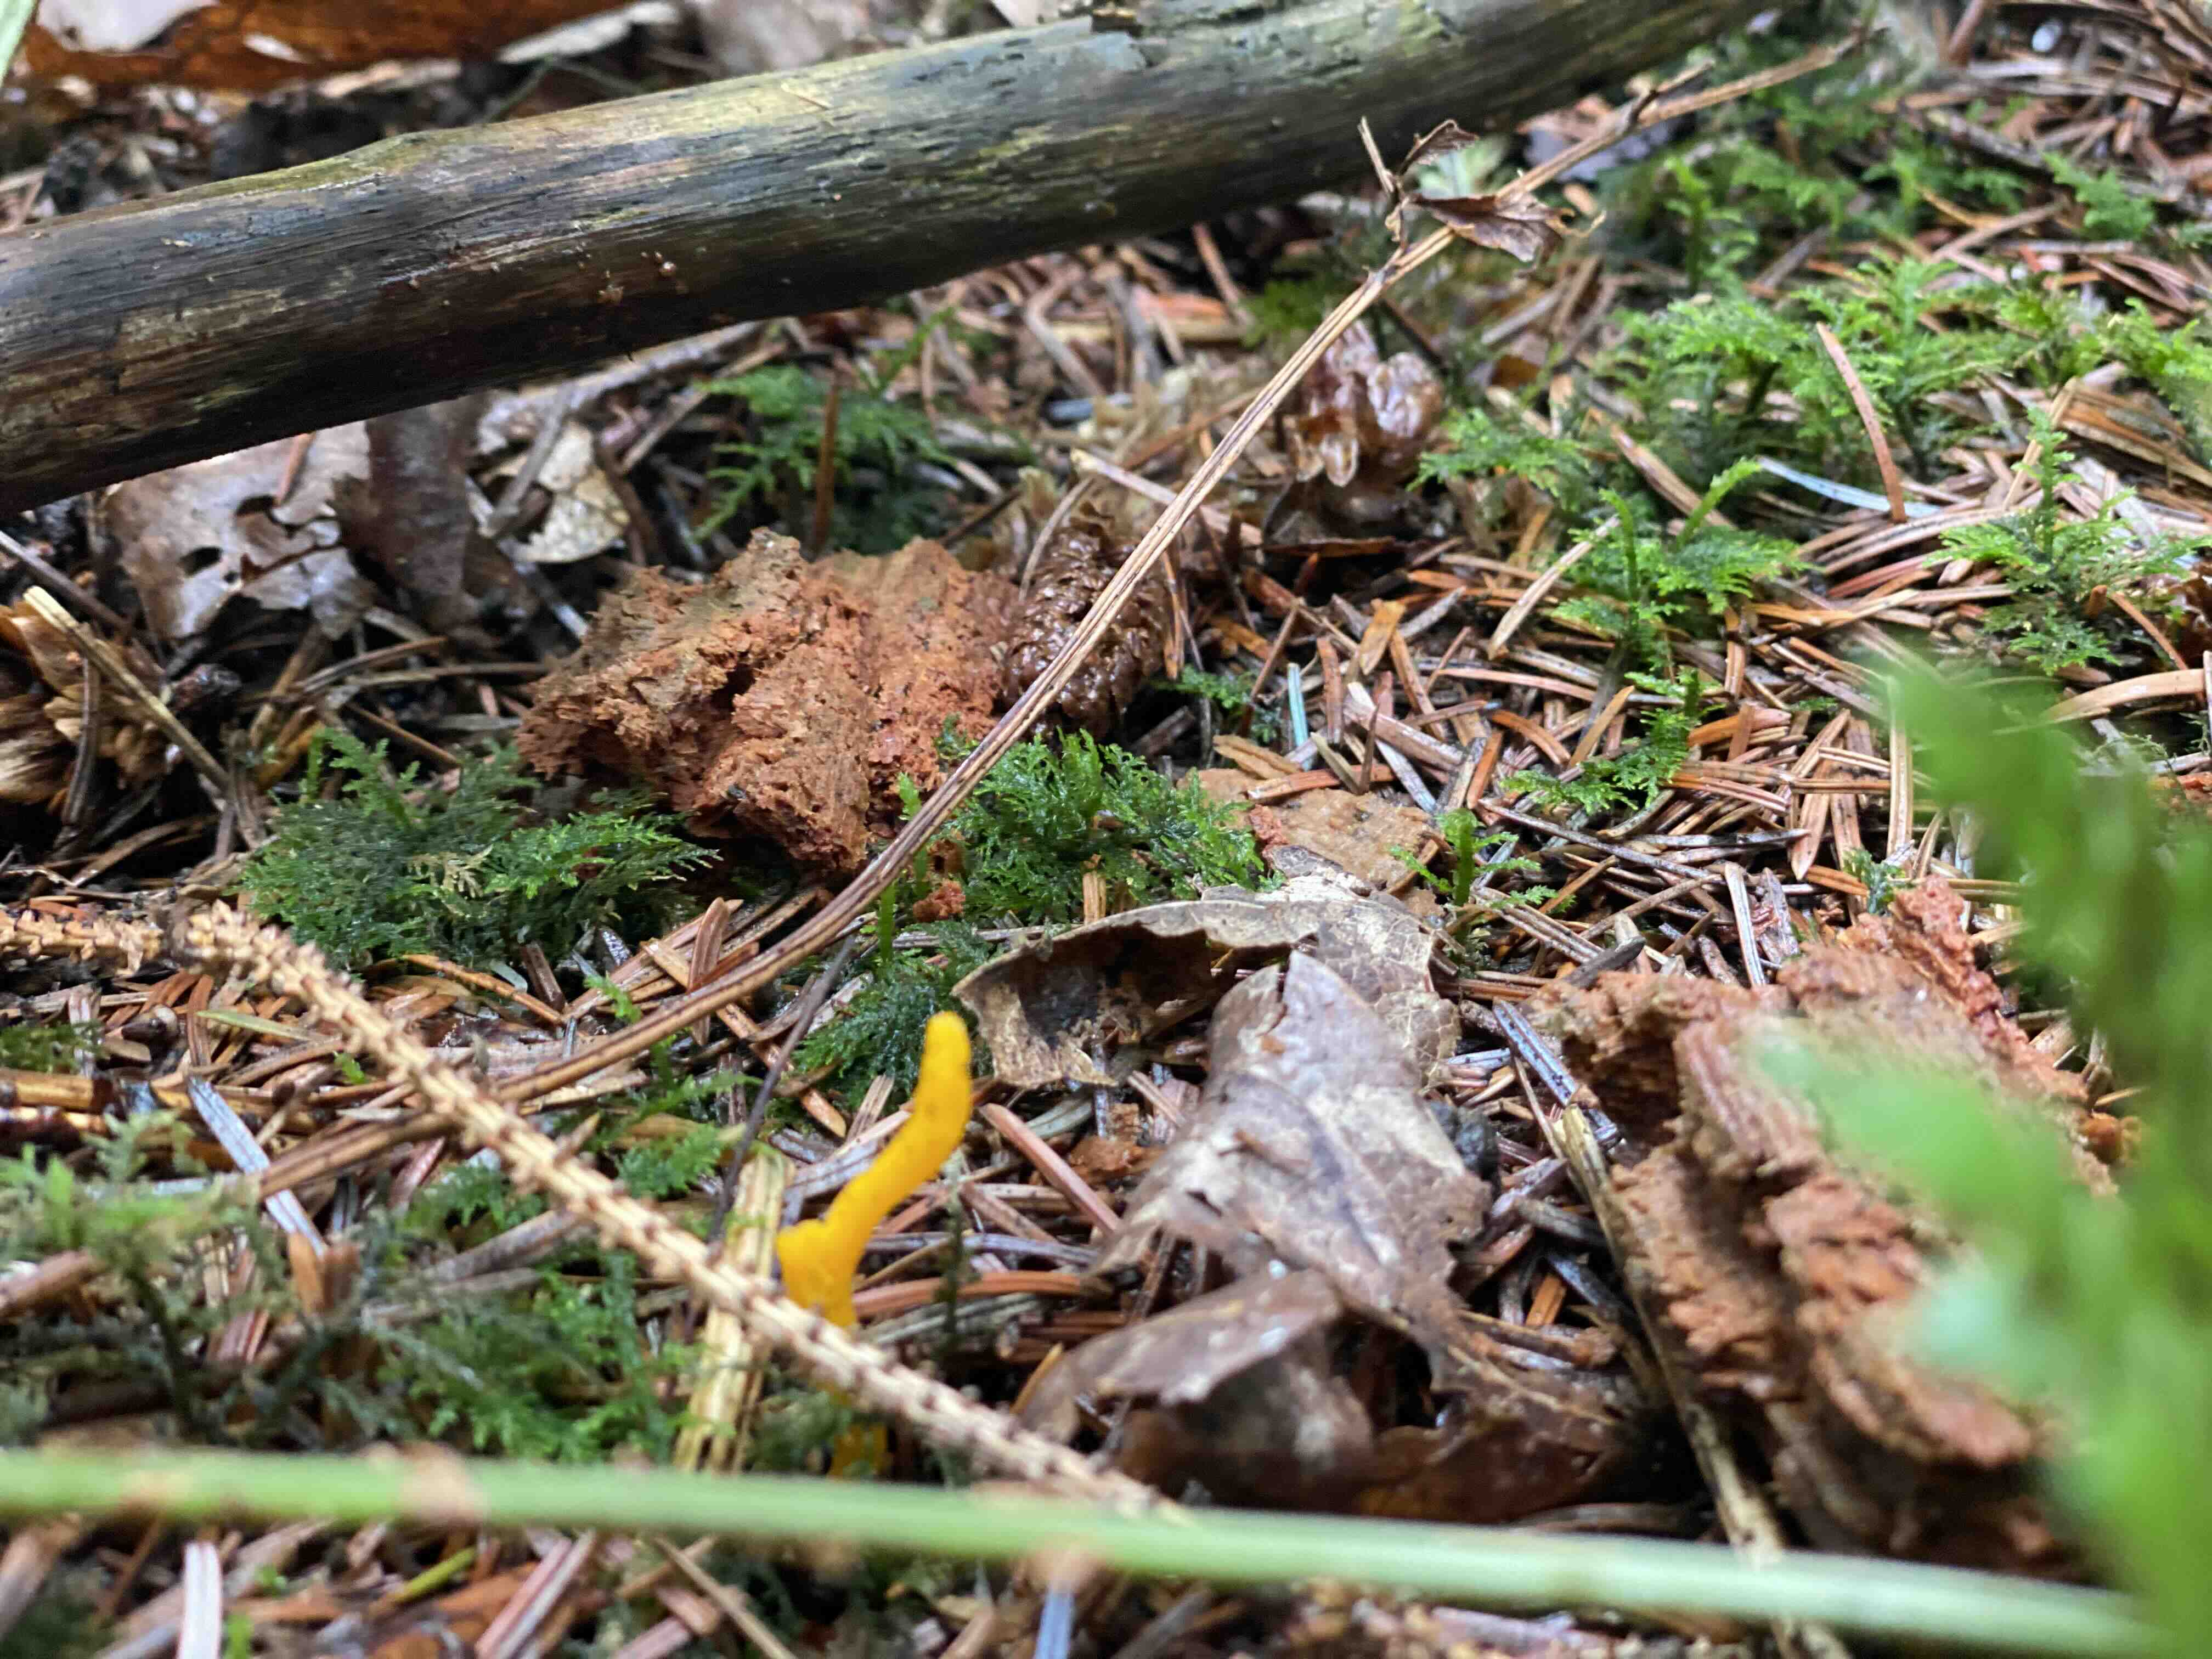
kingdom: Fungi
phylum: Basidiomycota
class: Dacrymycetes
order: Dacrymycetales
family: Dacrymycetaceae
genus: Calocera
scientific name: Calocera viscosa
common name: almindelig guldgaffel
